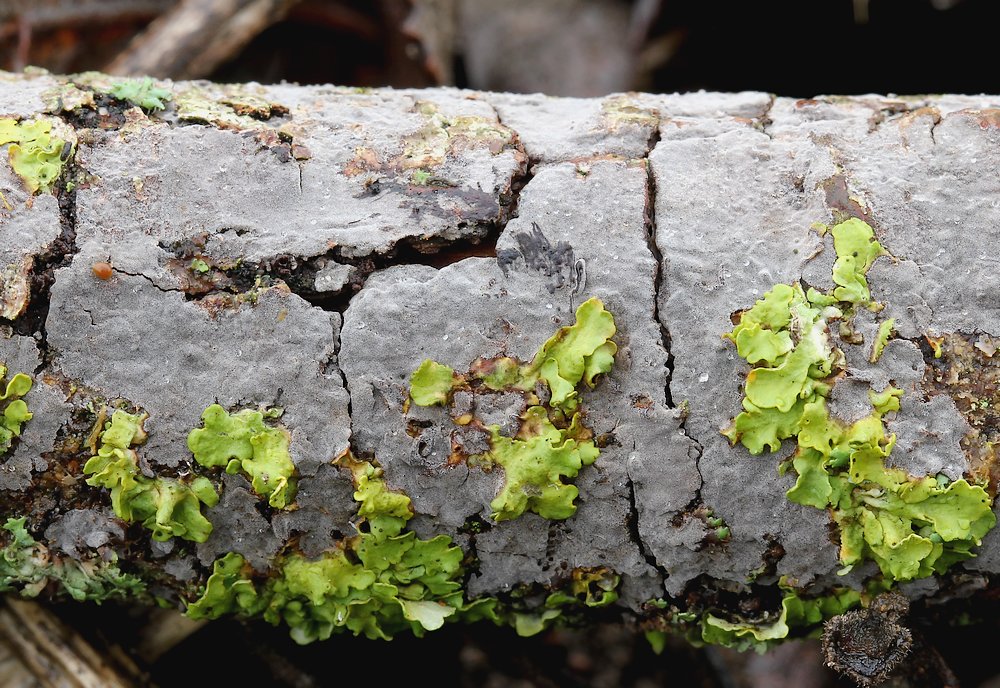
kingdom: Fungi
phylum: Basidiomycota
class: Agaricomycetes
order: Russulales
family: Peniophoraceae
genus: Peniophora
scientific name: Peniophora
